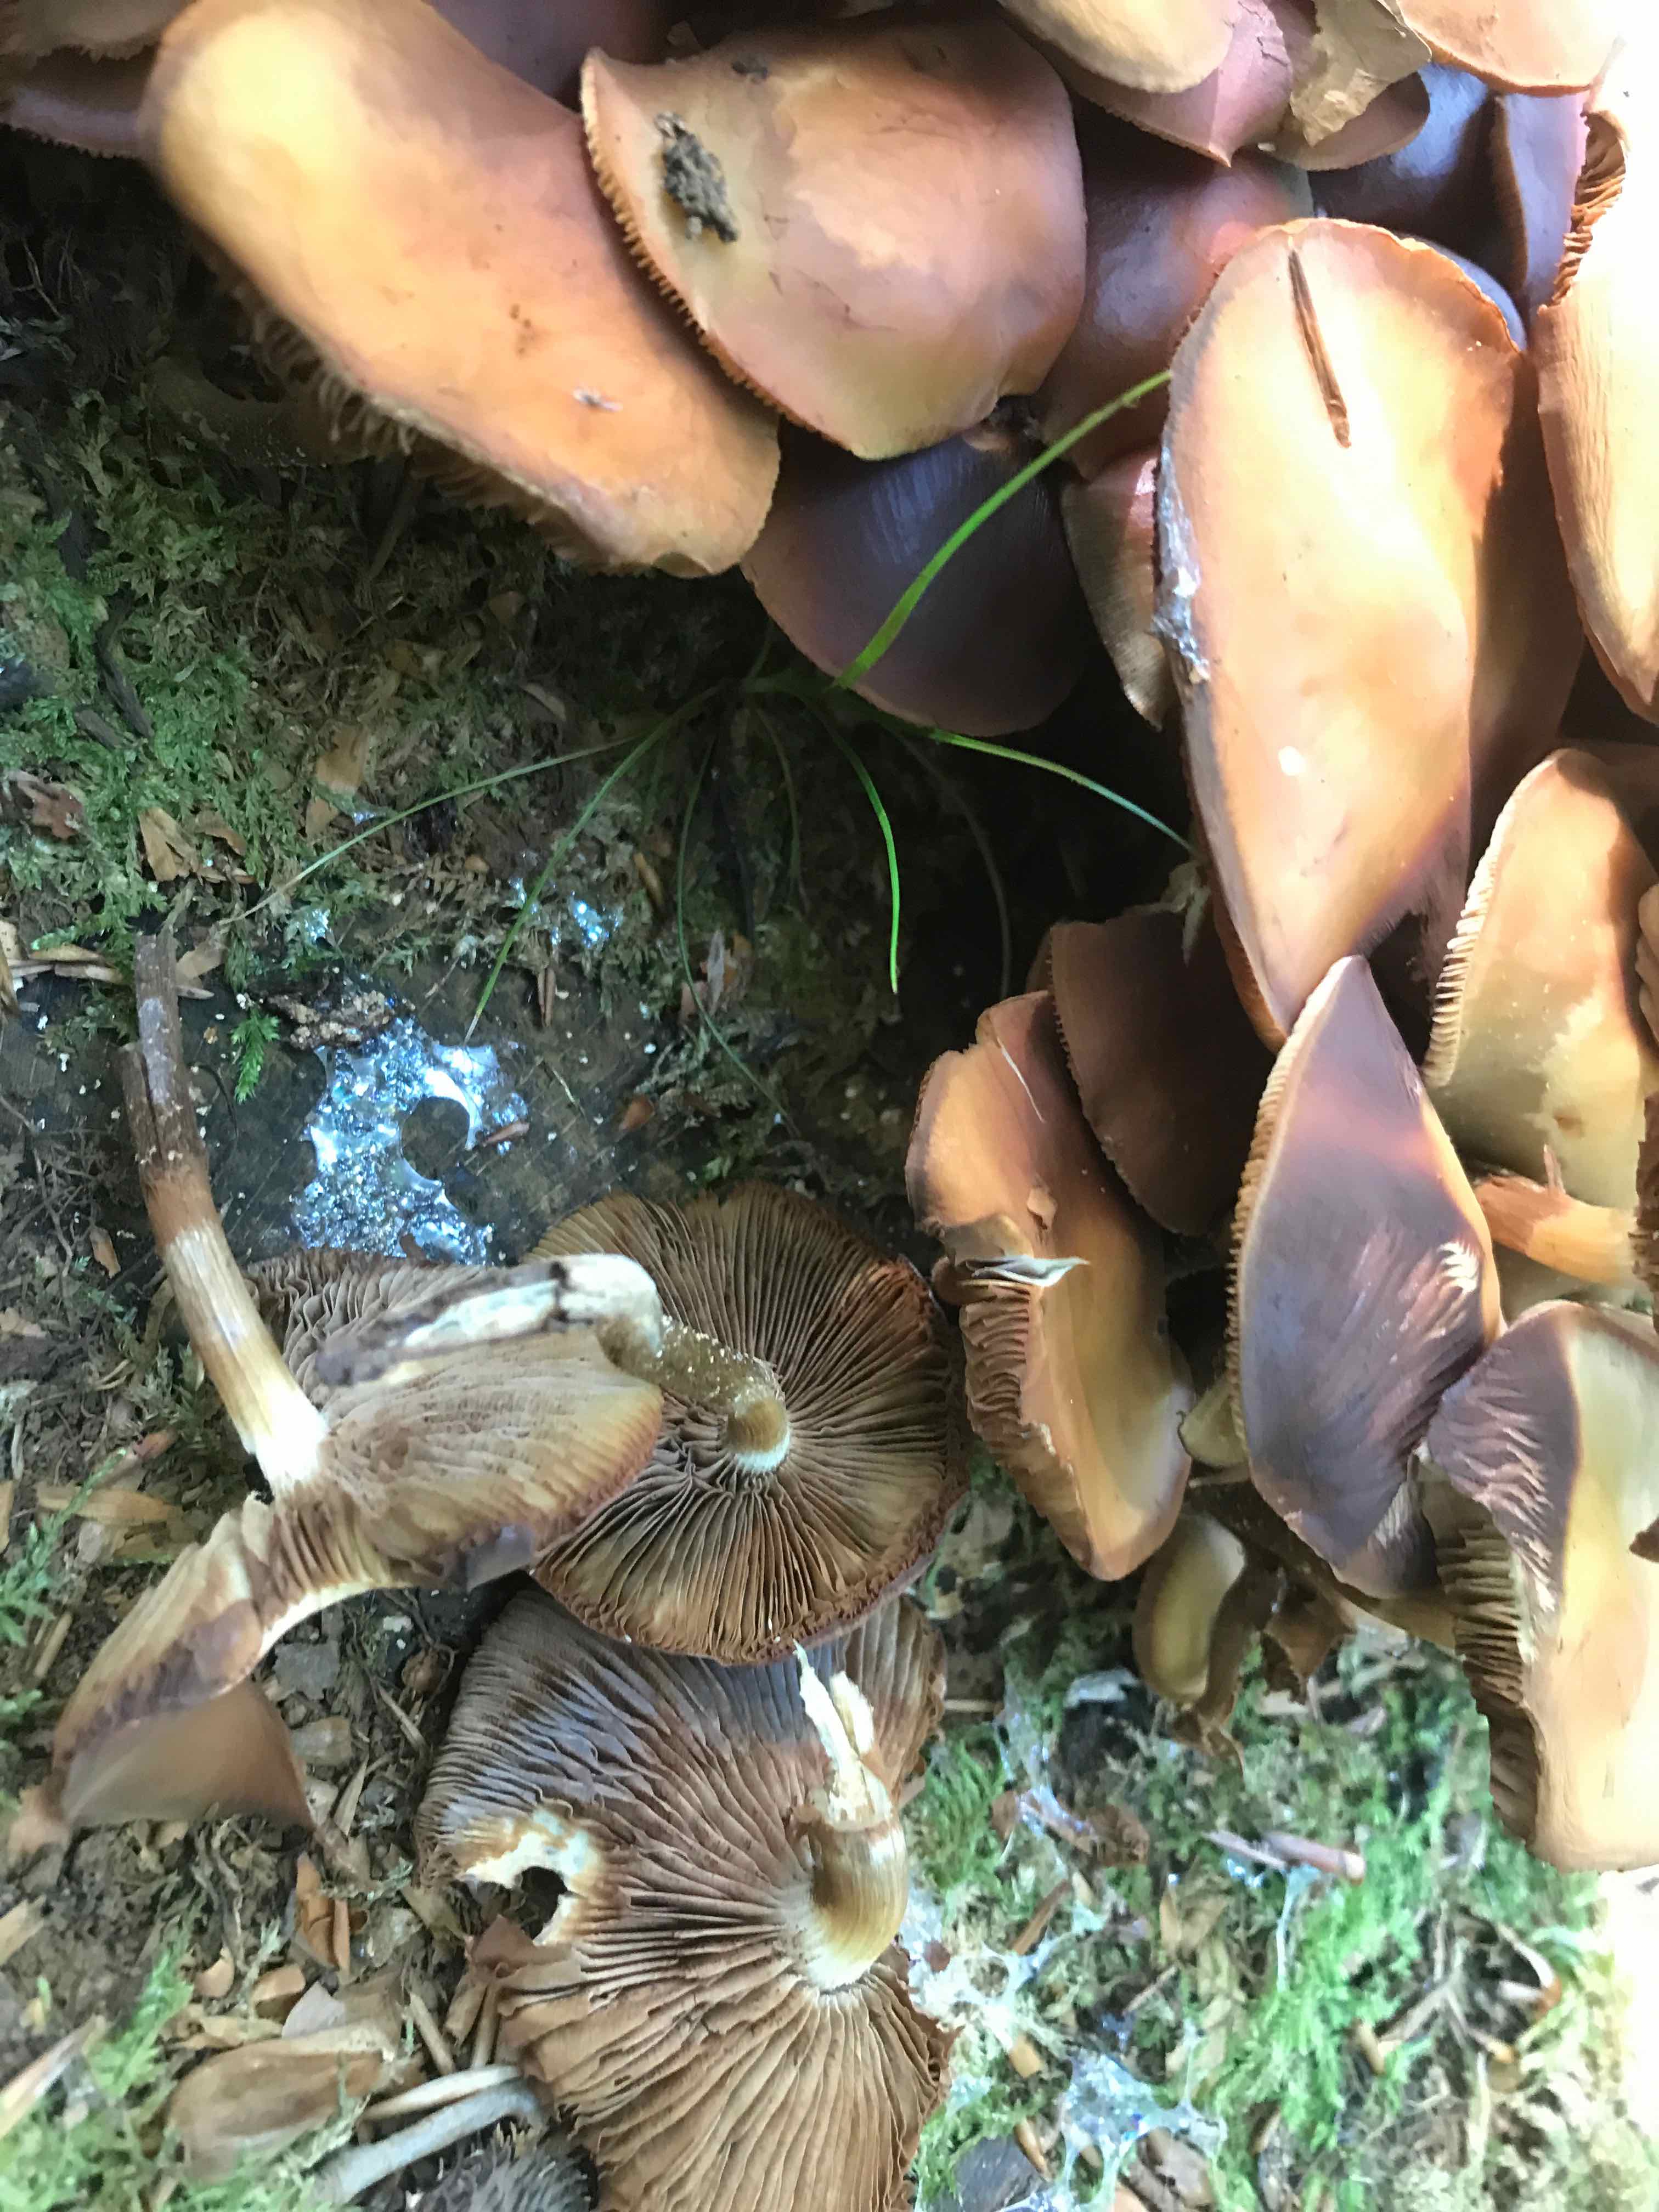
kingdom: Fungi
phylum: Basidiomycota
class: Agaricomycetes
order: Agaricales
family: Strophariaceae
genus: Kuehneromyces
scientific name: Kuehneromyces mutabilis
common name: foranderlig skælhat
